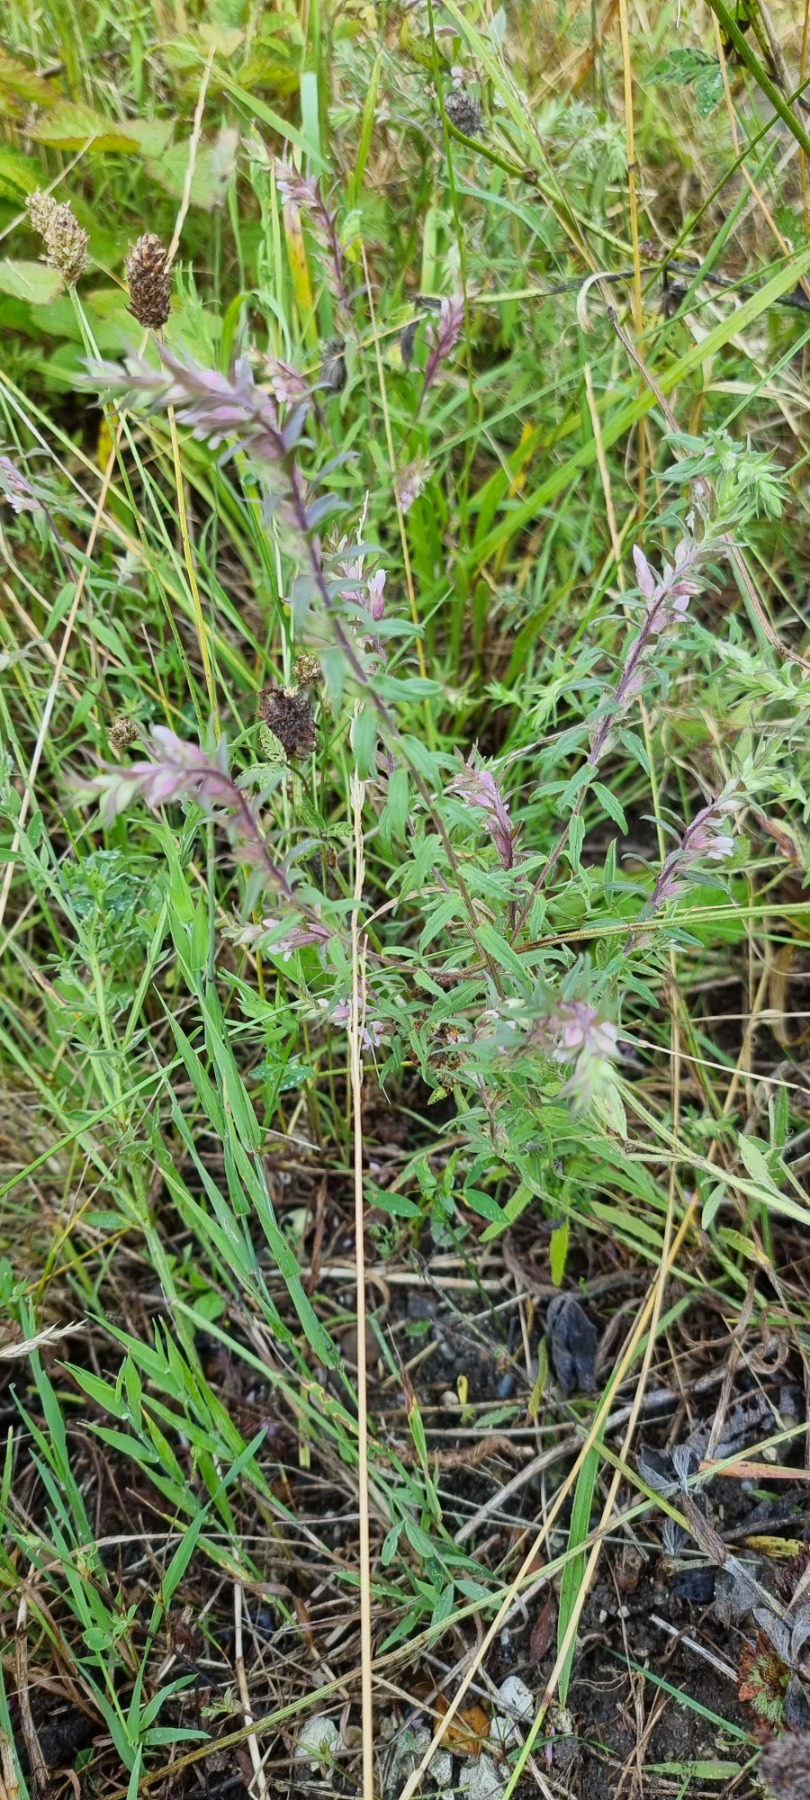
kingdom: Plantae
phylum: Tracheophyta
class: Magnoliopsida
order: Lamiales
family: Orobanchaceae
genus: Odontites
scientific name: Odontites vulgaris
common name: Høst-rødtop
